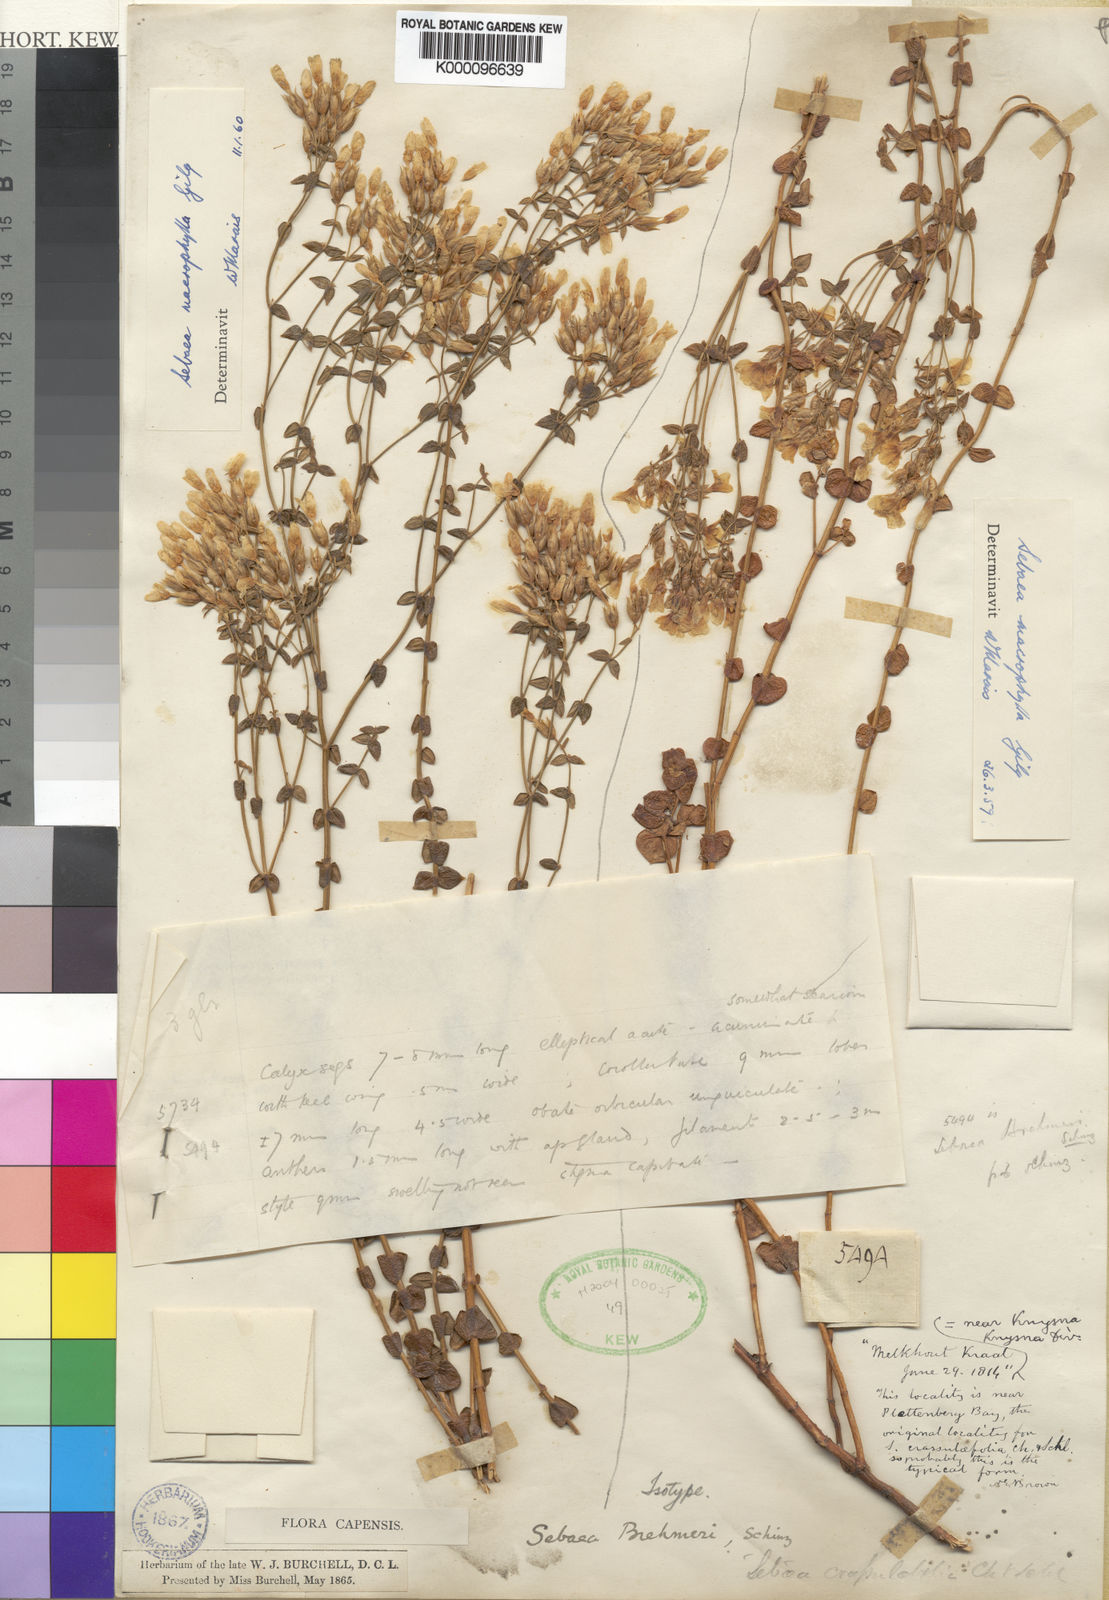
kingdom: Plantae
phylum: Tracheophyta
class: Magnoliopsida
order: Gentianales
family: Gentianaceae
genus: Sebaea
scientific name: Sebaea macrophylla
